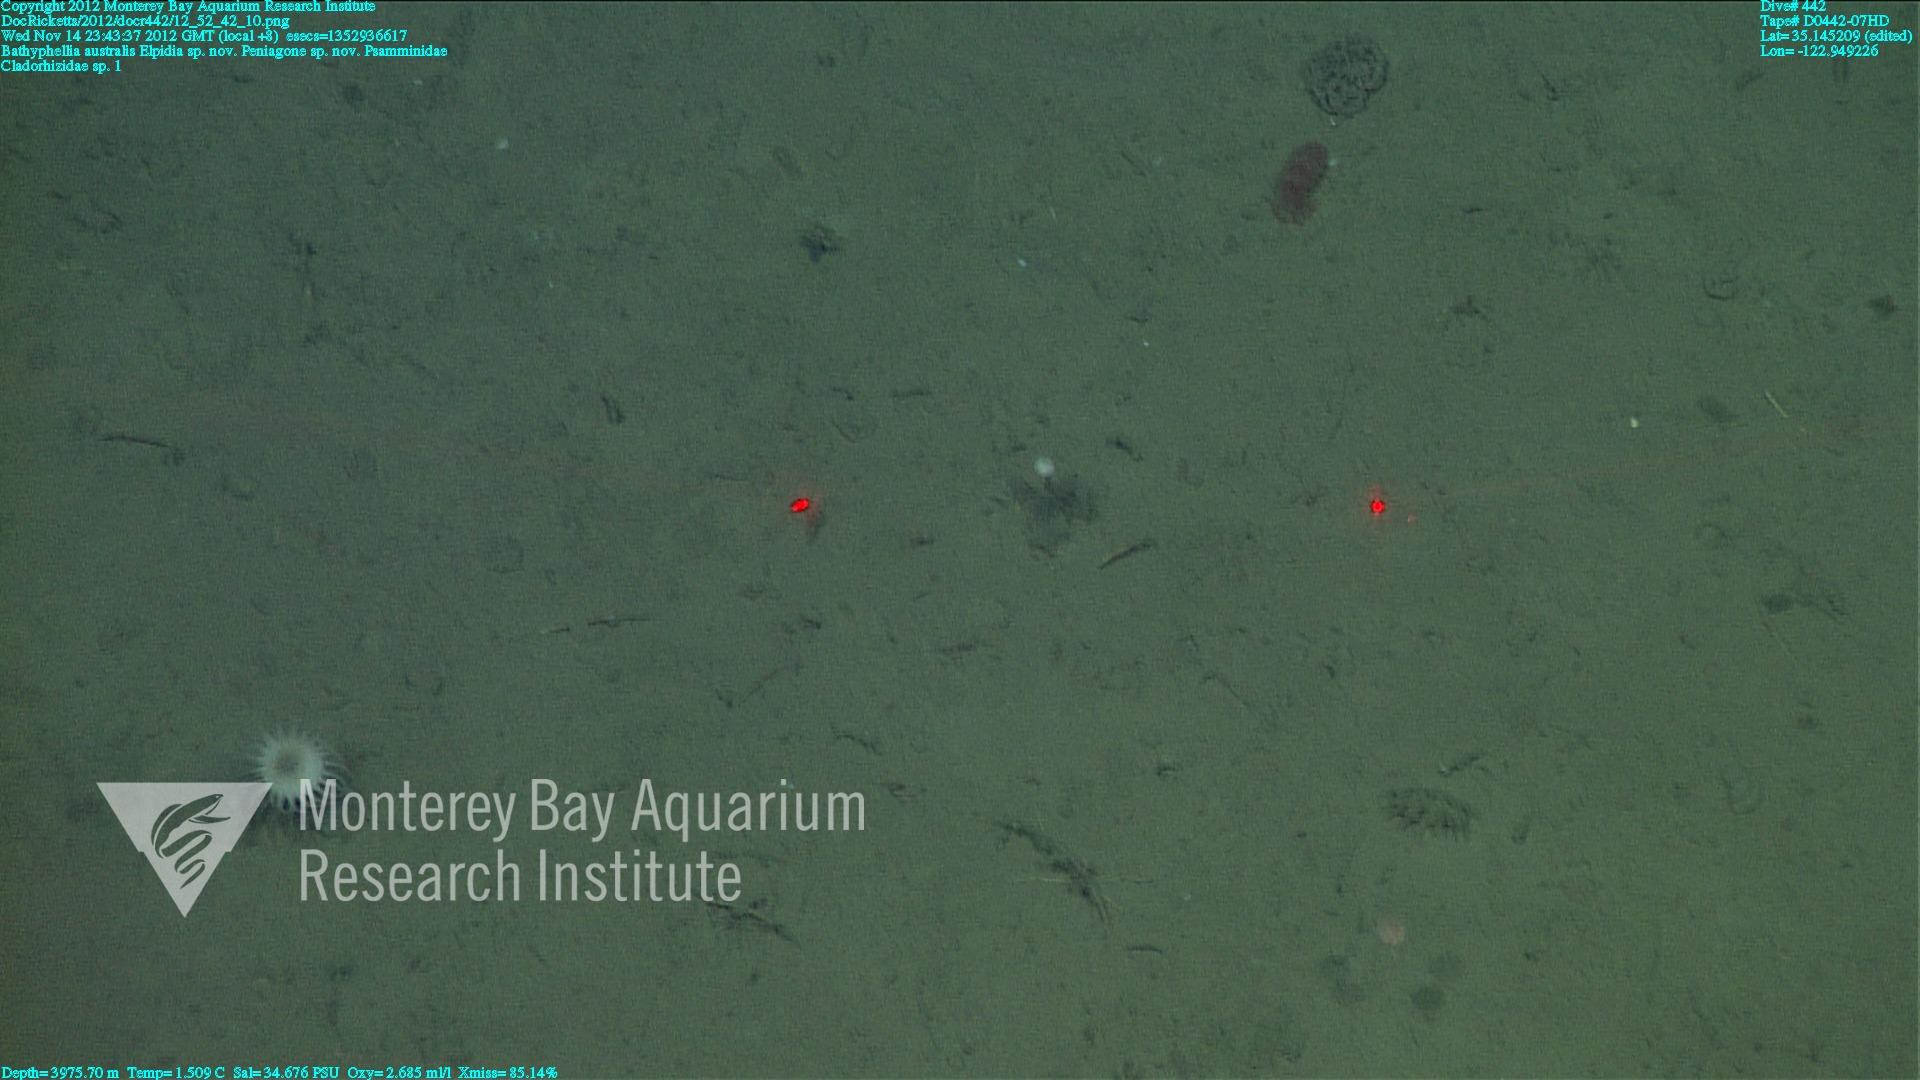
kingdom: Animalia
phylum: Porifera
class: Demospongiae
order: Poecilosclerida
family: Cladorhizidae
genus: Cladorhiza
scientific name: Cladorhiza
